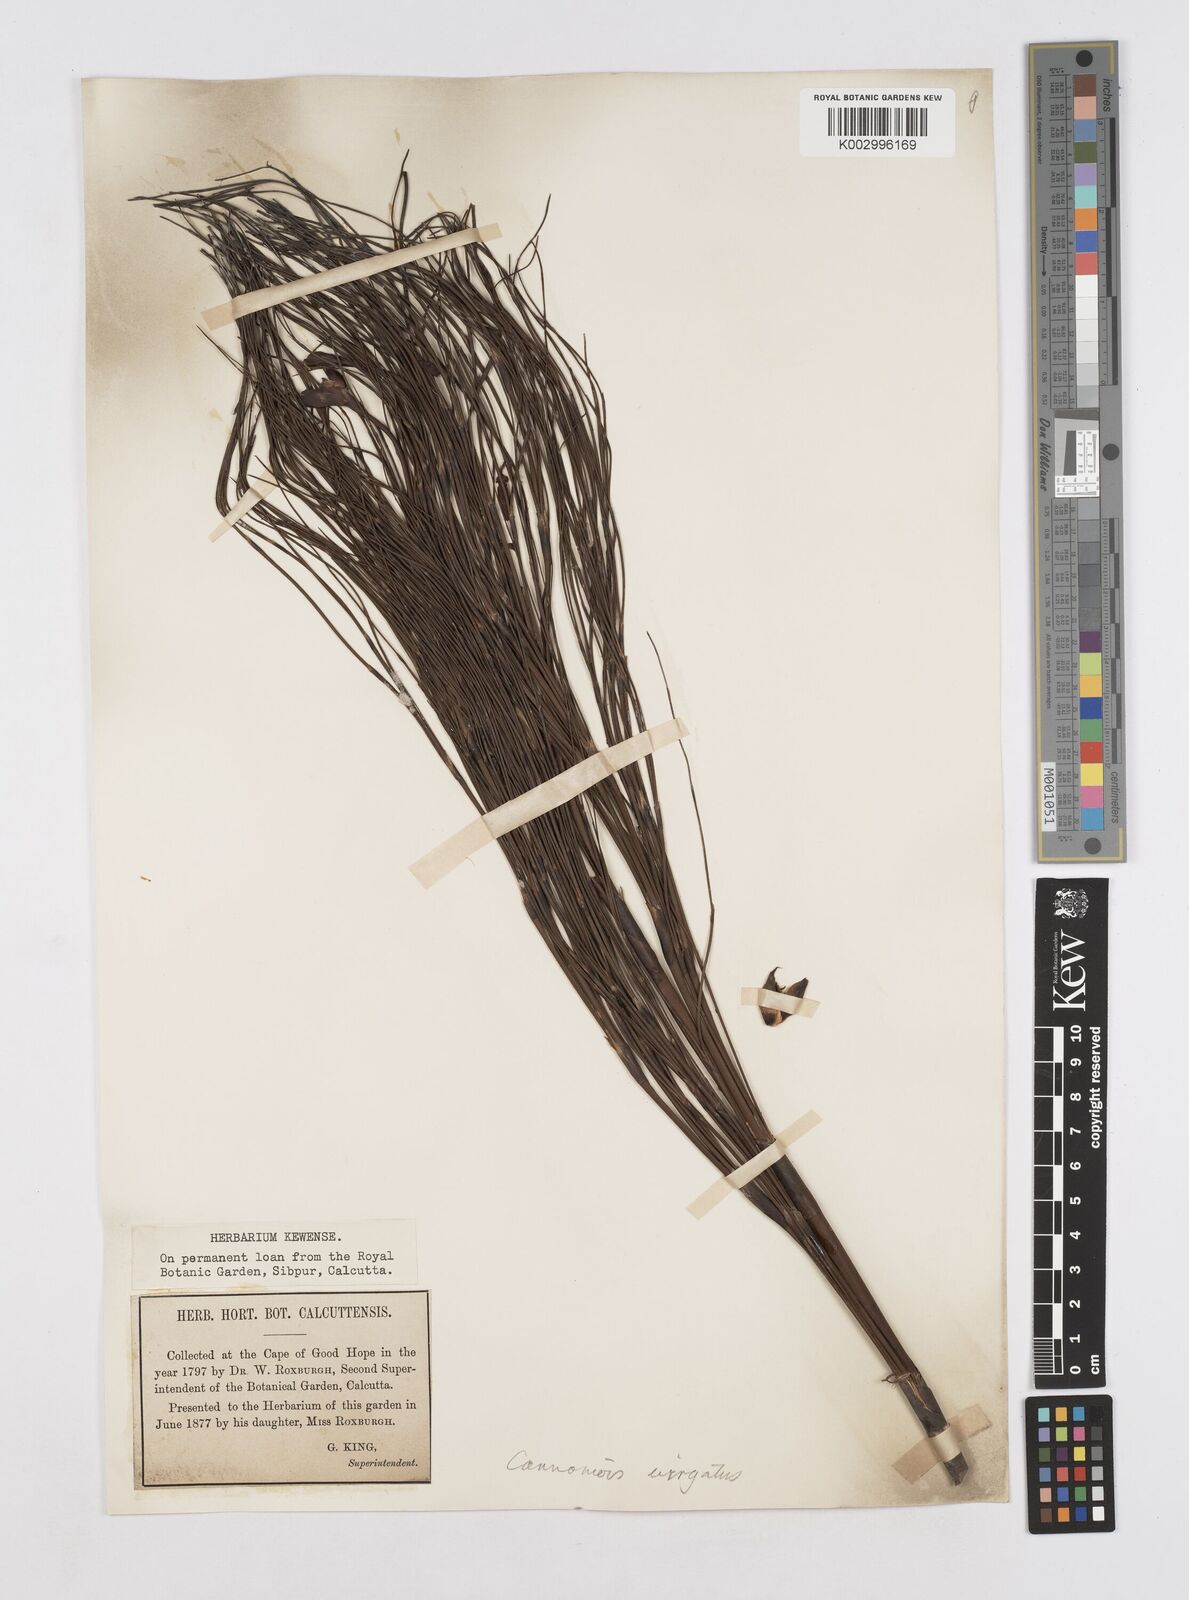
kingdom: Plantae
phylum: Tracheophyta
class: Liliopsida
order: Poales
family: Restionaceae
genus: Cannomois
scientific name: Cannomois virgata
